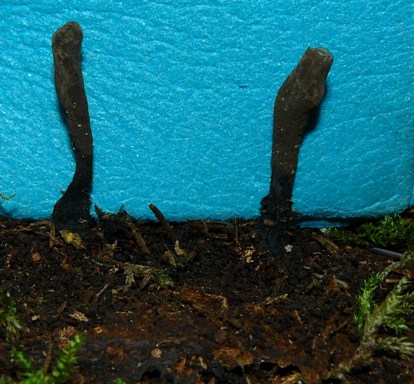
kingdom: Fungi
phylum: Ascomycota
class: Sordariomycetes
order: Xylariales
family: Xylariaceae
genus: Xylaria
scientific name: Xylaria longipes
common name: slank stødsvamp
